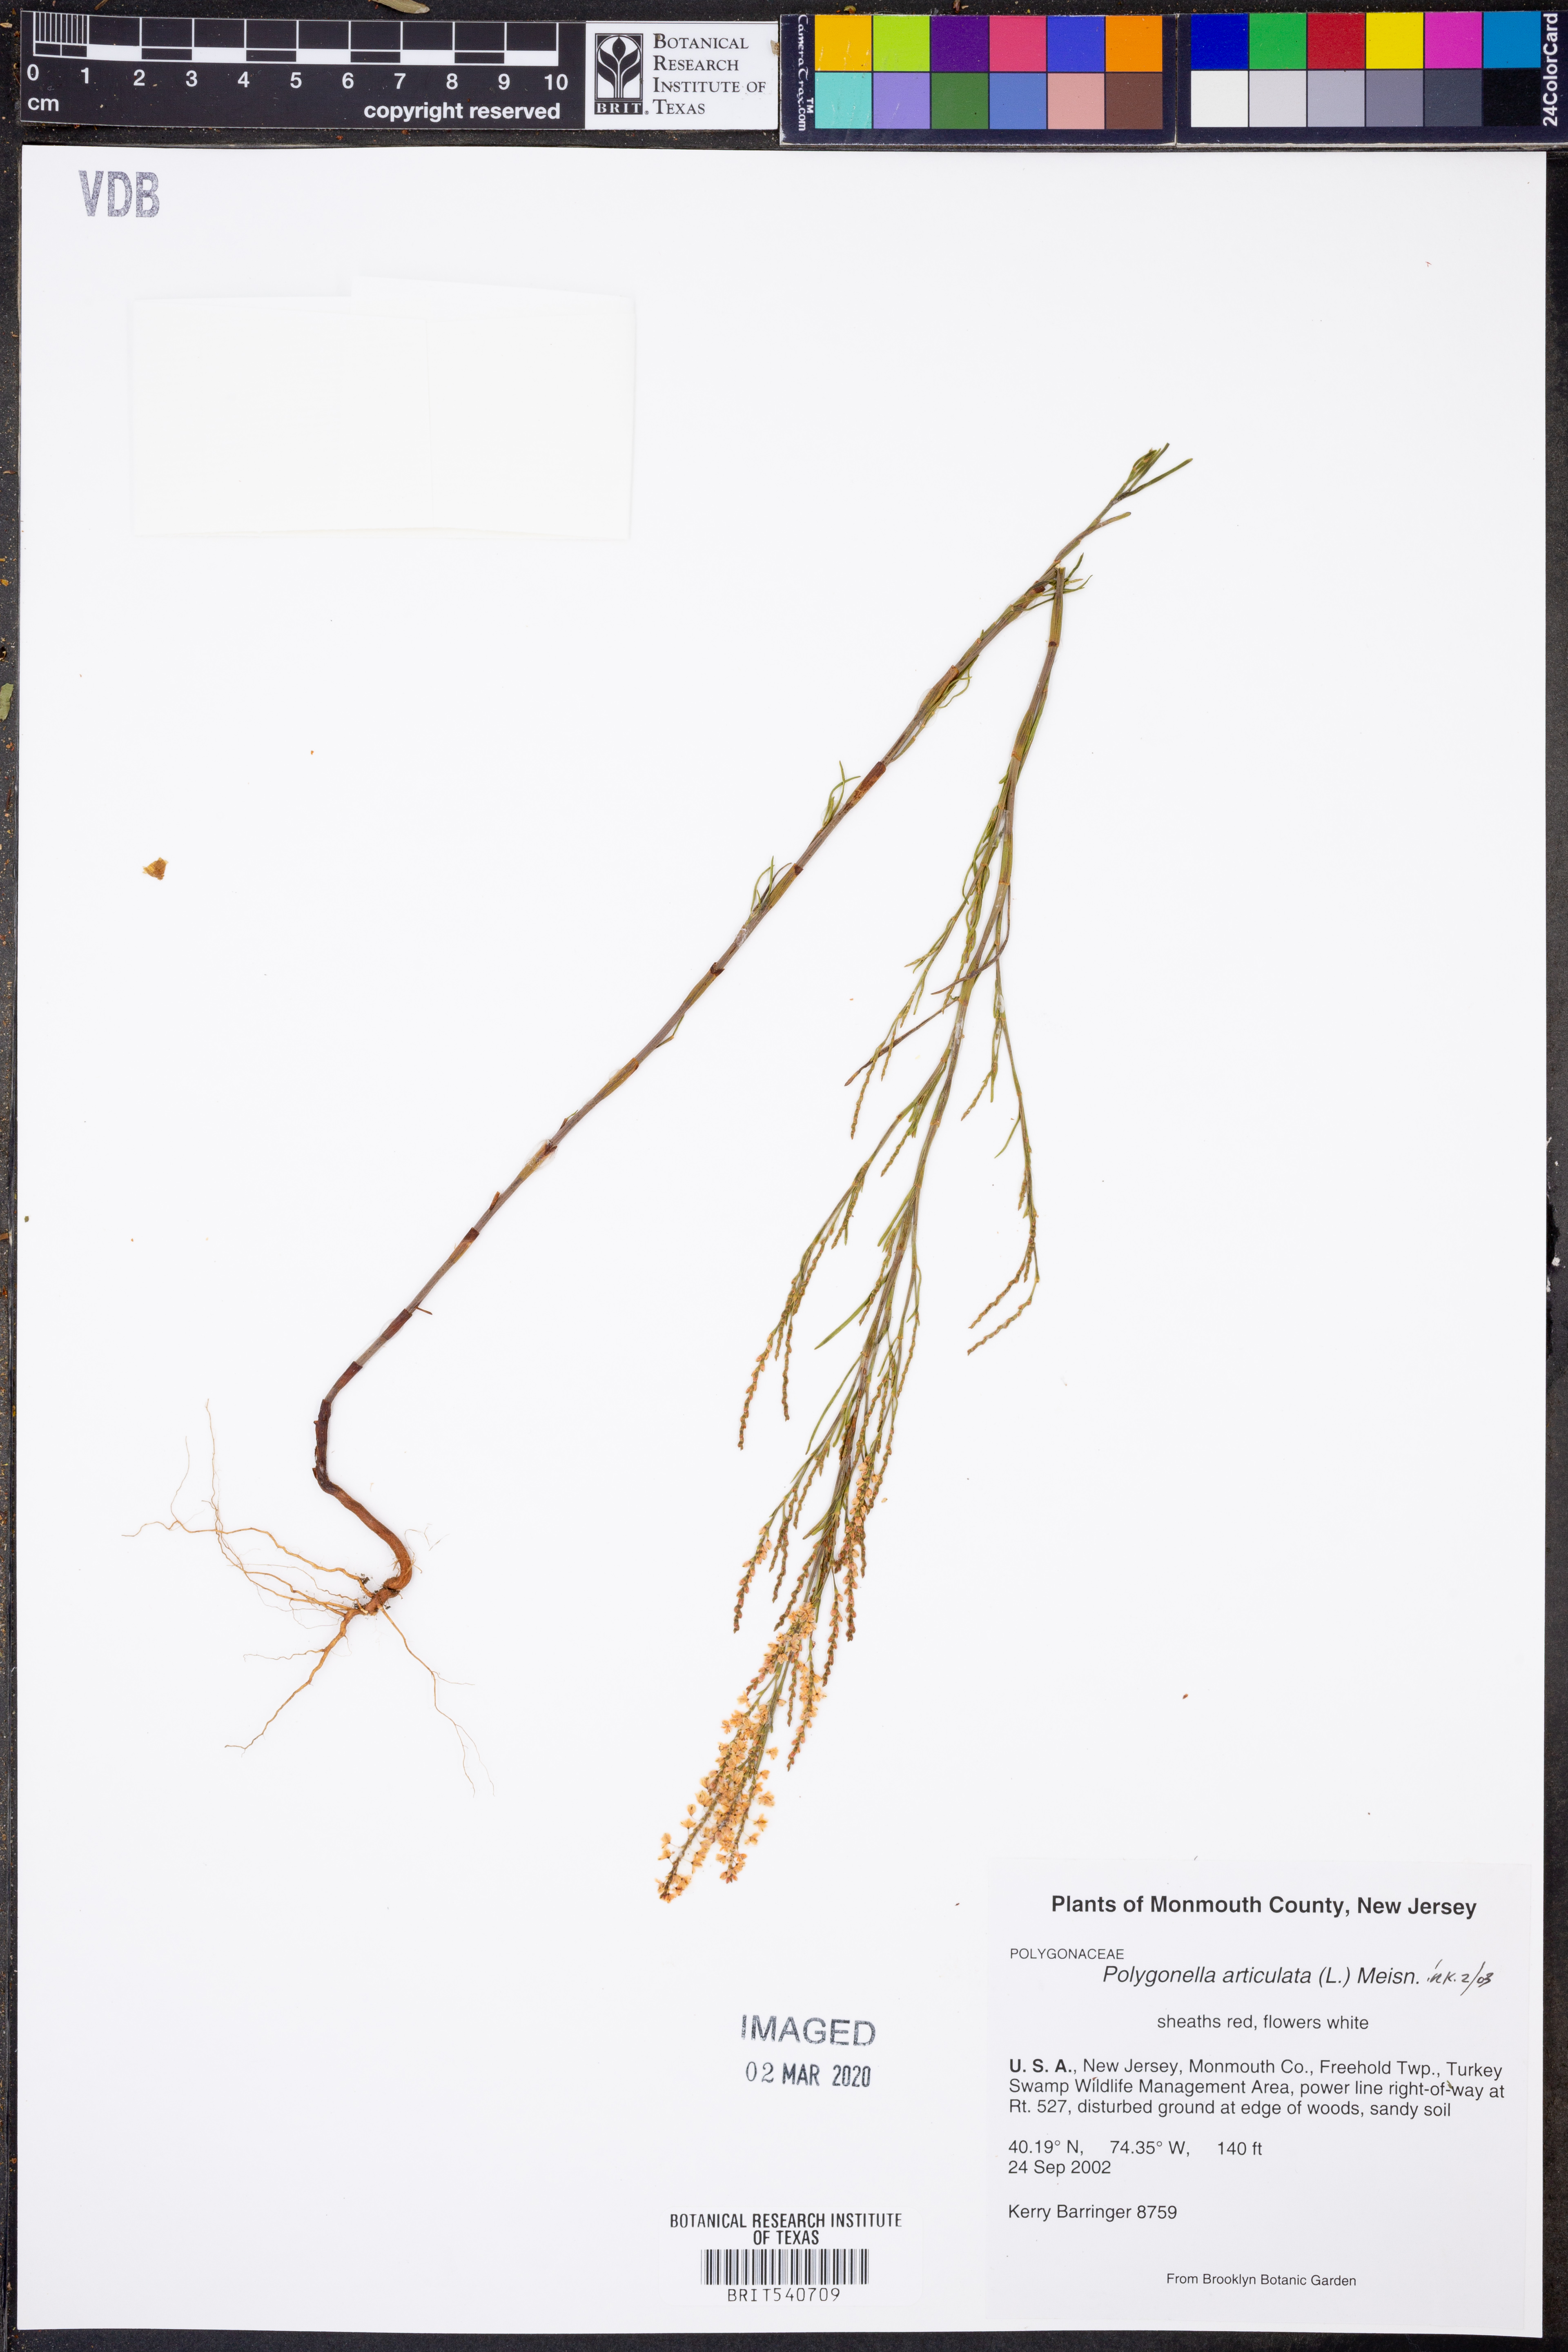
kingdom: Plantae
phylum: Tracheophyta
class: Magnoliopsida
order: Caryophyllales
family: Polygonaceae
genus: Polygonella
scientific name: Polygonella articulata
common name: Coastal jointweed
